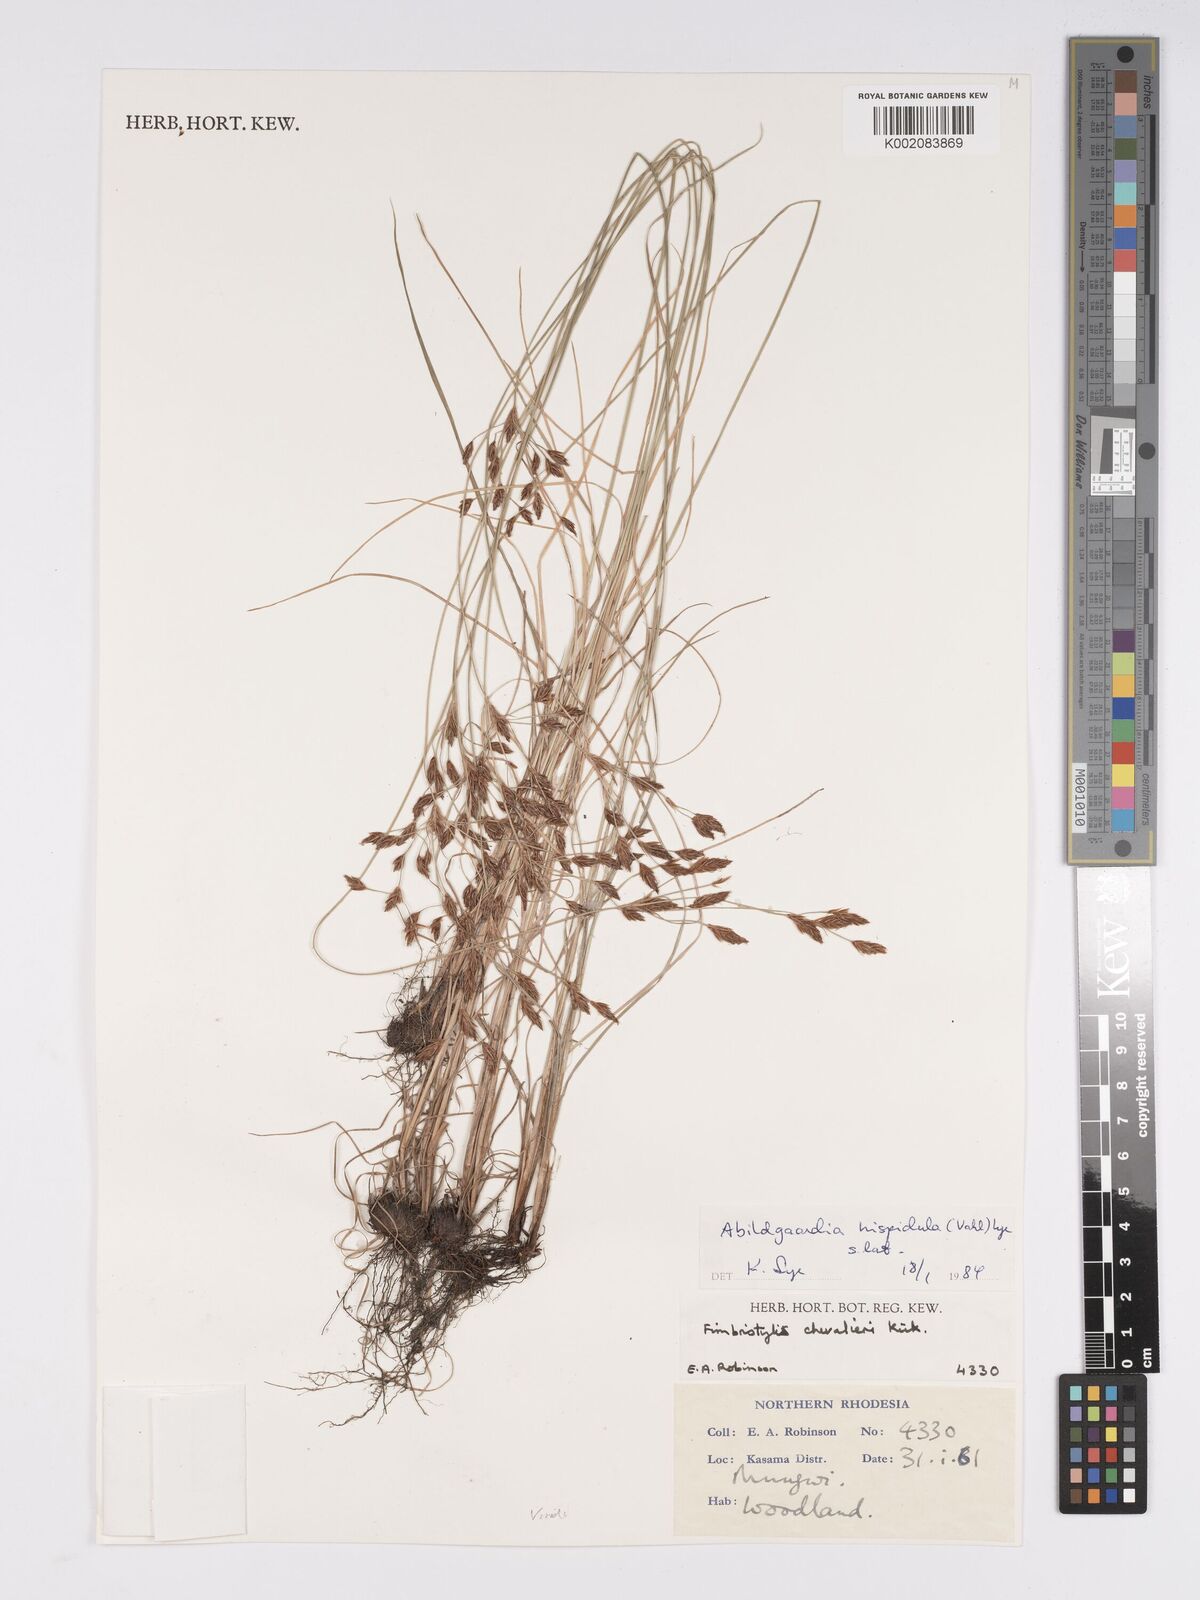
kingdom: Plantae
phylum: Tracheophyta
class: Liliopsida
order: Poales
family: Cyperaceae
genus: Bulbostylis
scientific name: Bulbostylis hispidula
